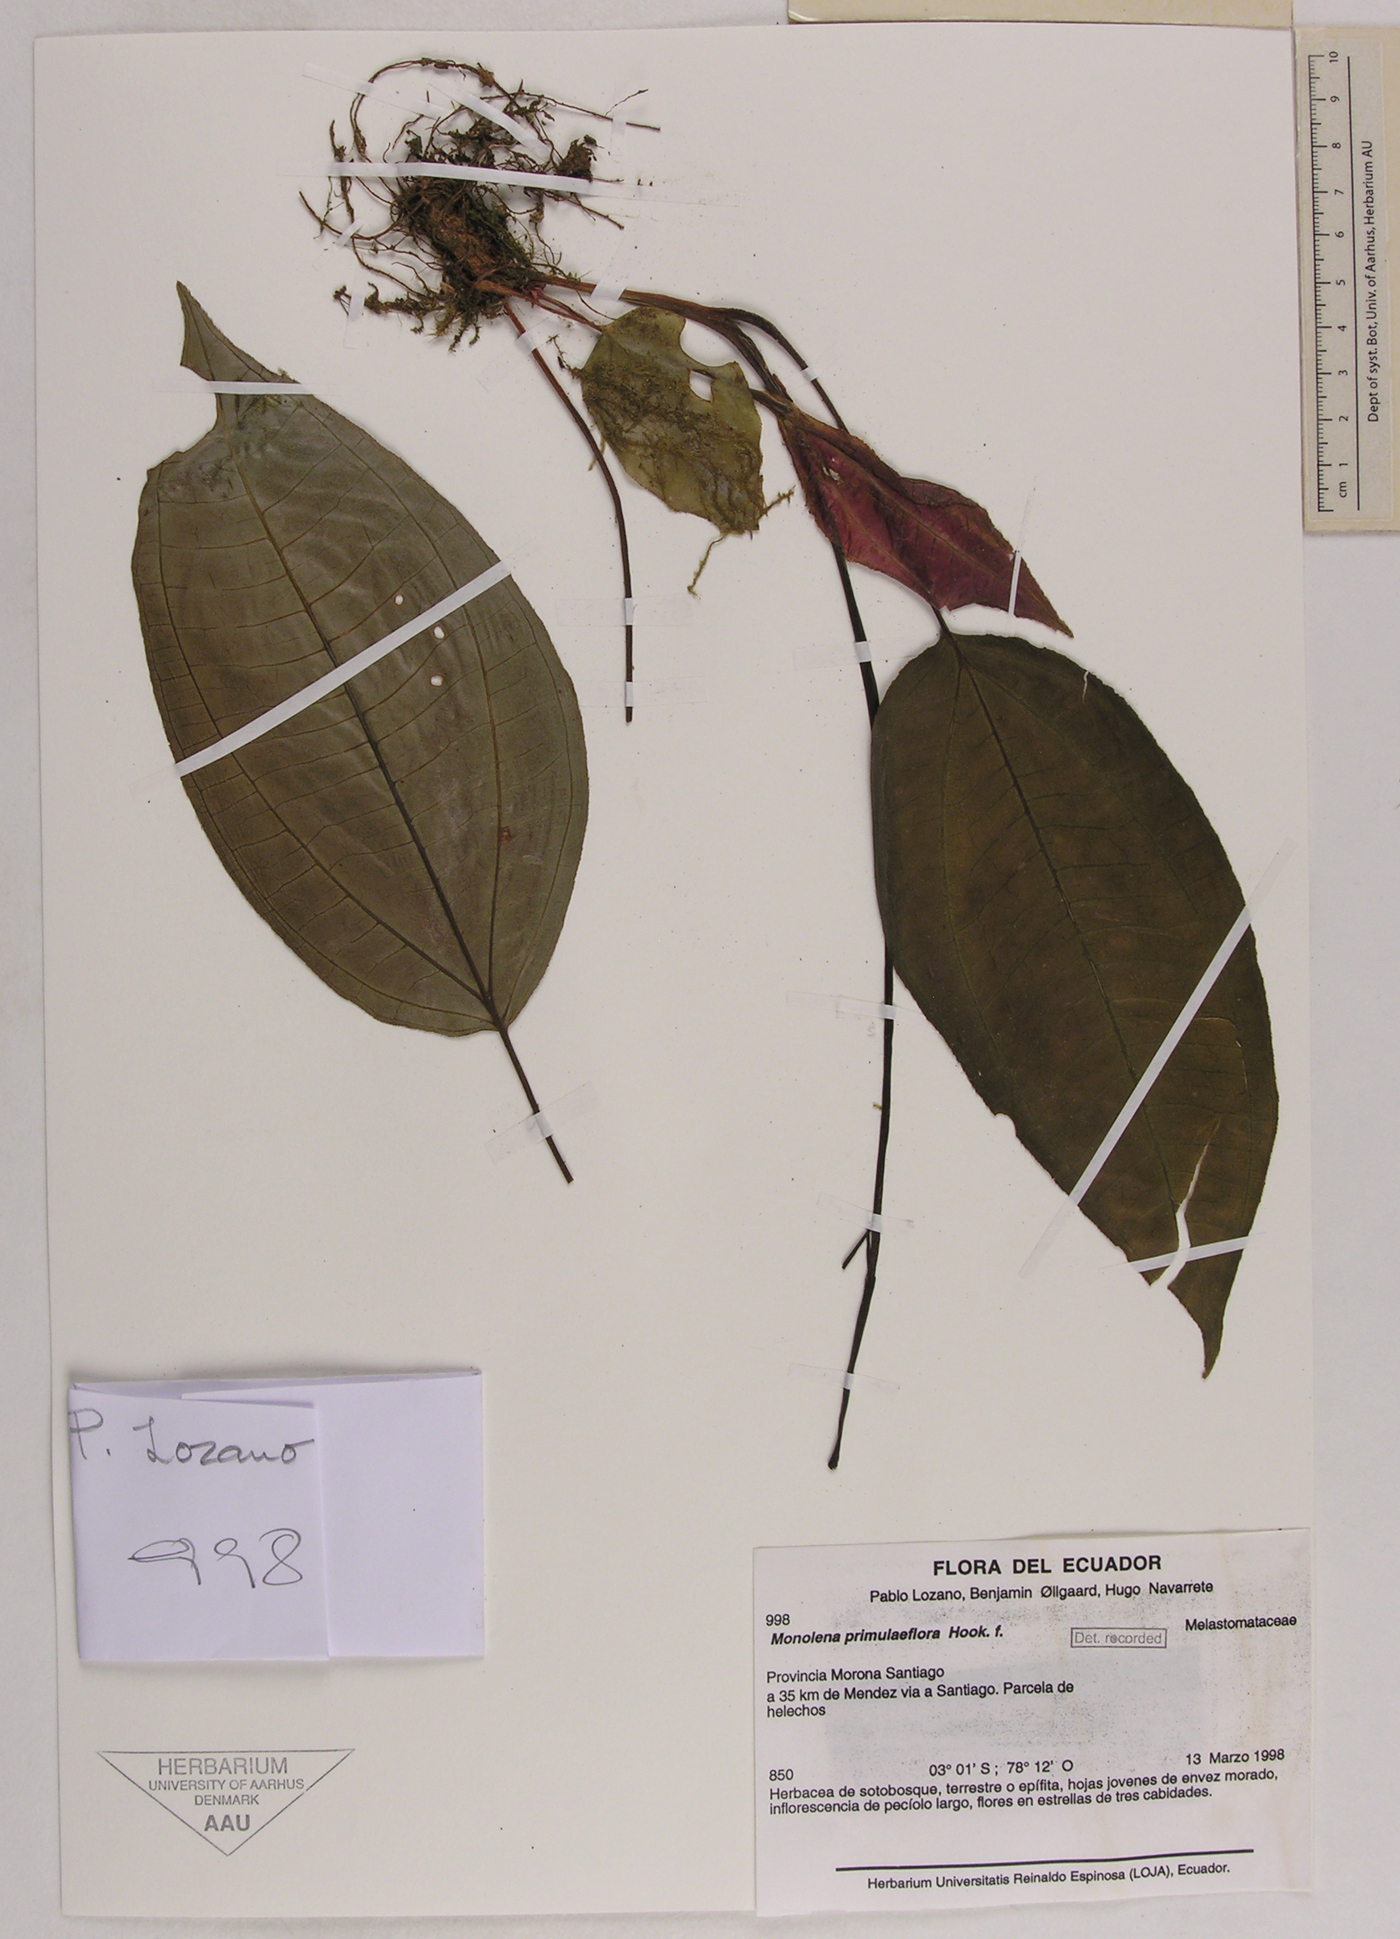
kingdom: Plantae
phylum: Tracheophyta
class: Magnoliopsida
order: Myrtales
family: Melastomataceae
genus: Monolena
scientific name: Monolena primuliflora
